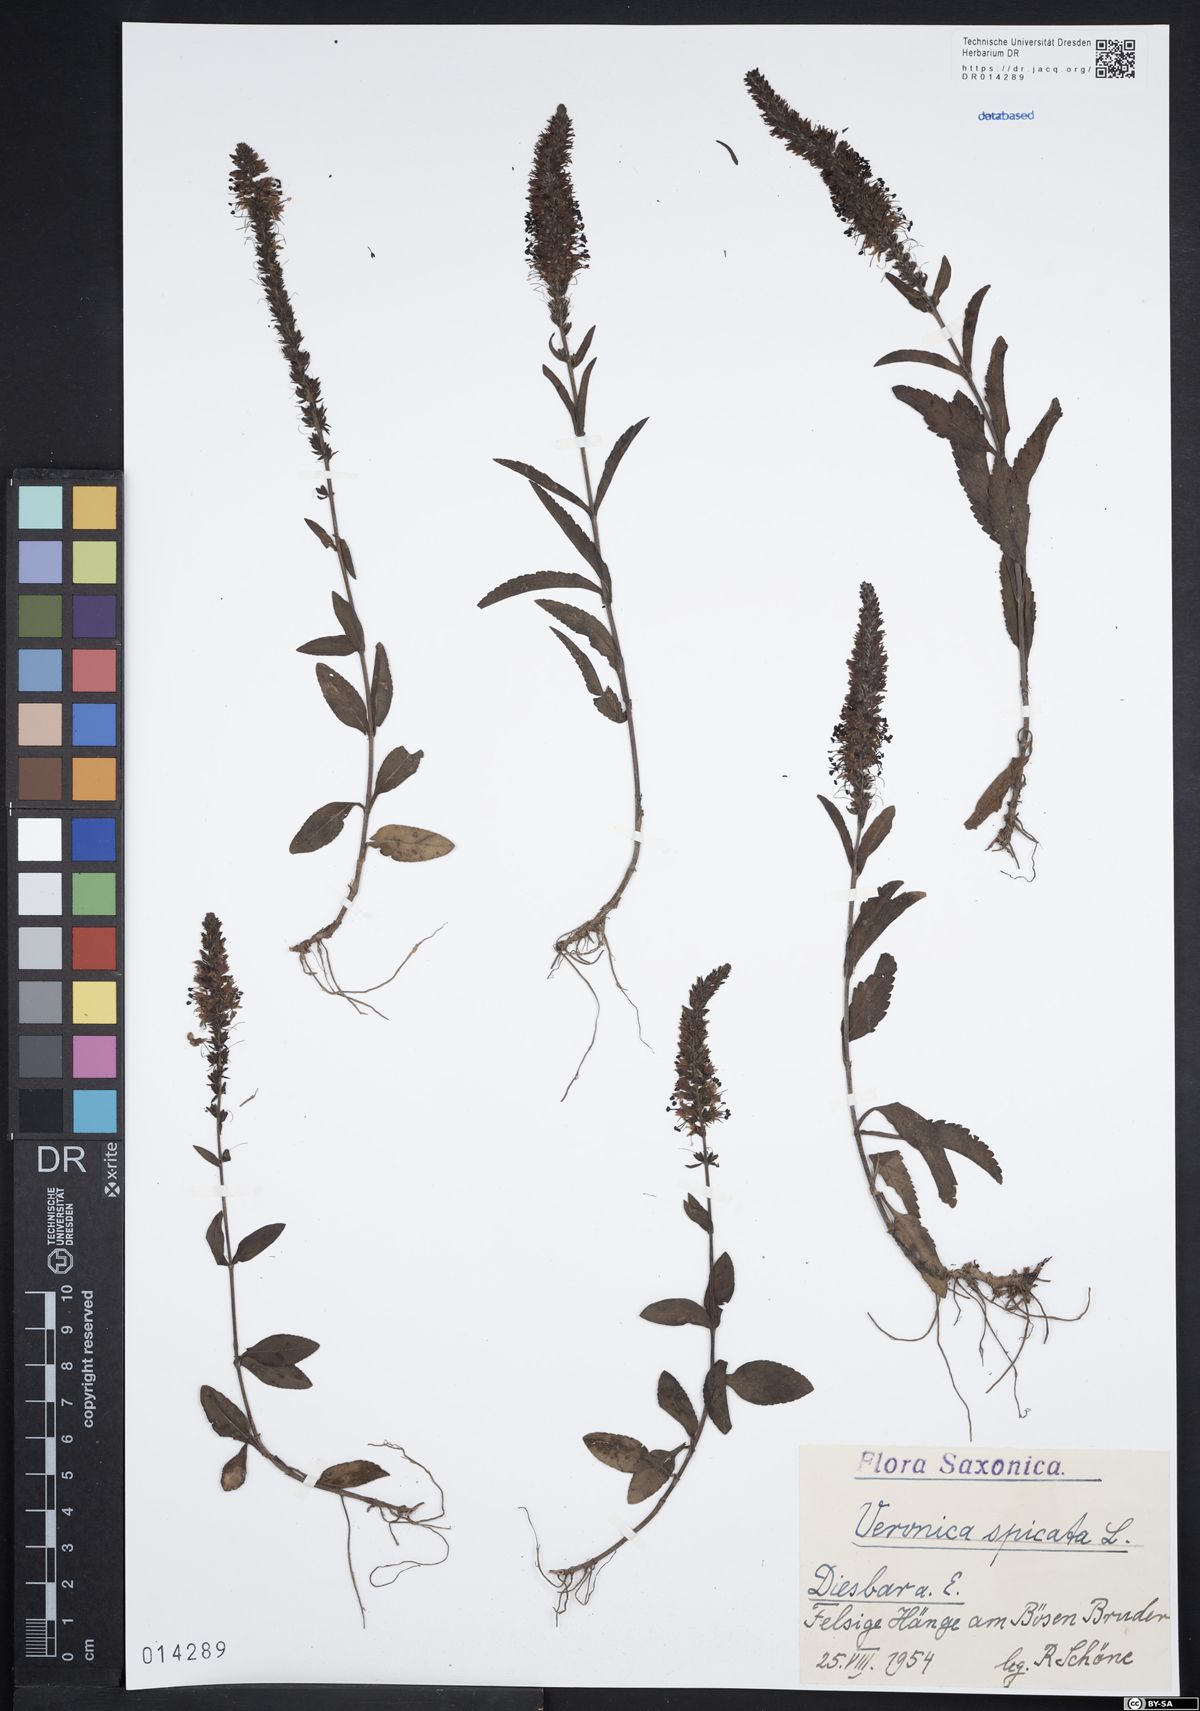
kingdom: Plantae
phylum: Tracheophyta
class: Magnoliopsida
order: Lamiales
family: Plantaginaceae
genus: Veronica
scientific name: Veronica spicata
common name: Spiked speedwell
